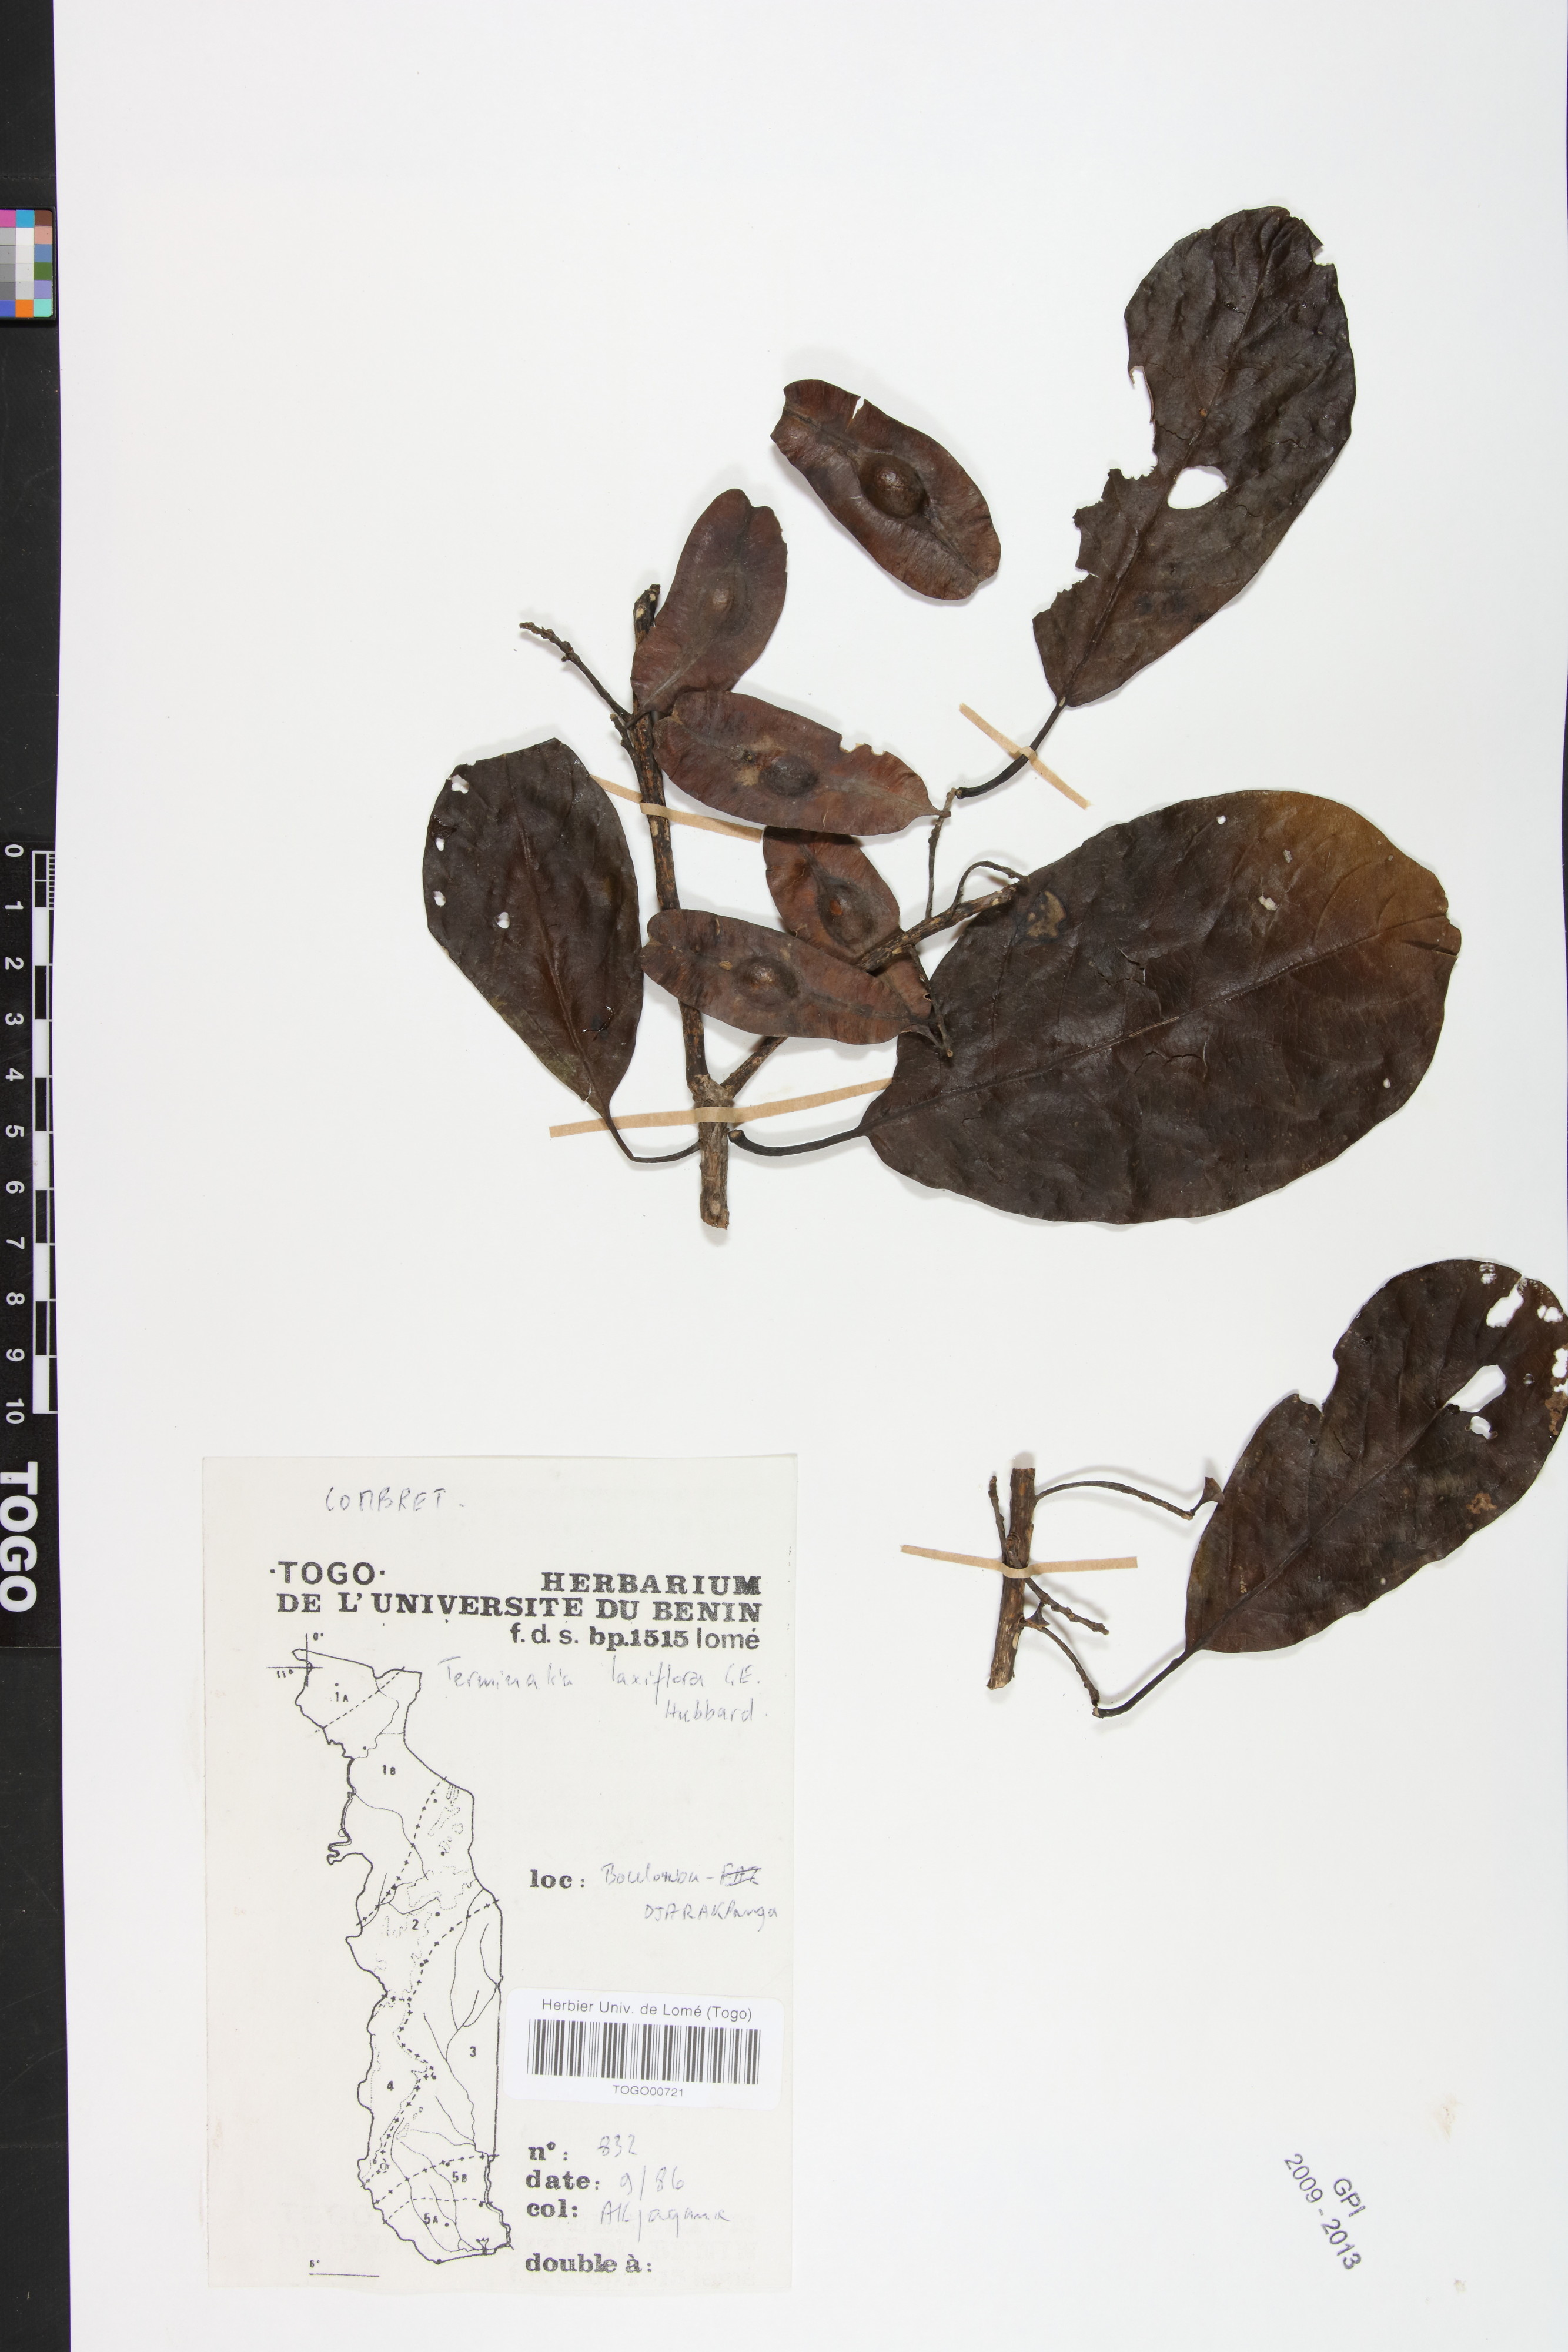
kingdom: Plantae
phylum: Tracheophyta
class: Magnoliopsida
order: Myrtales
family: Combretaceae
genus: Terminalia
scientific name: Terminalia laxiflora
